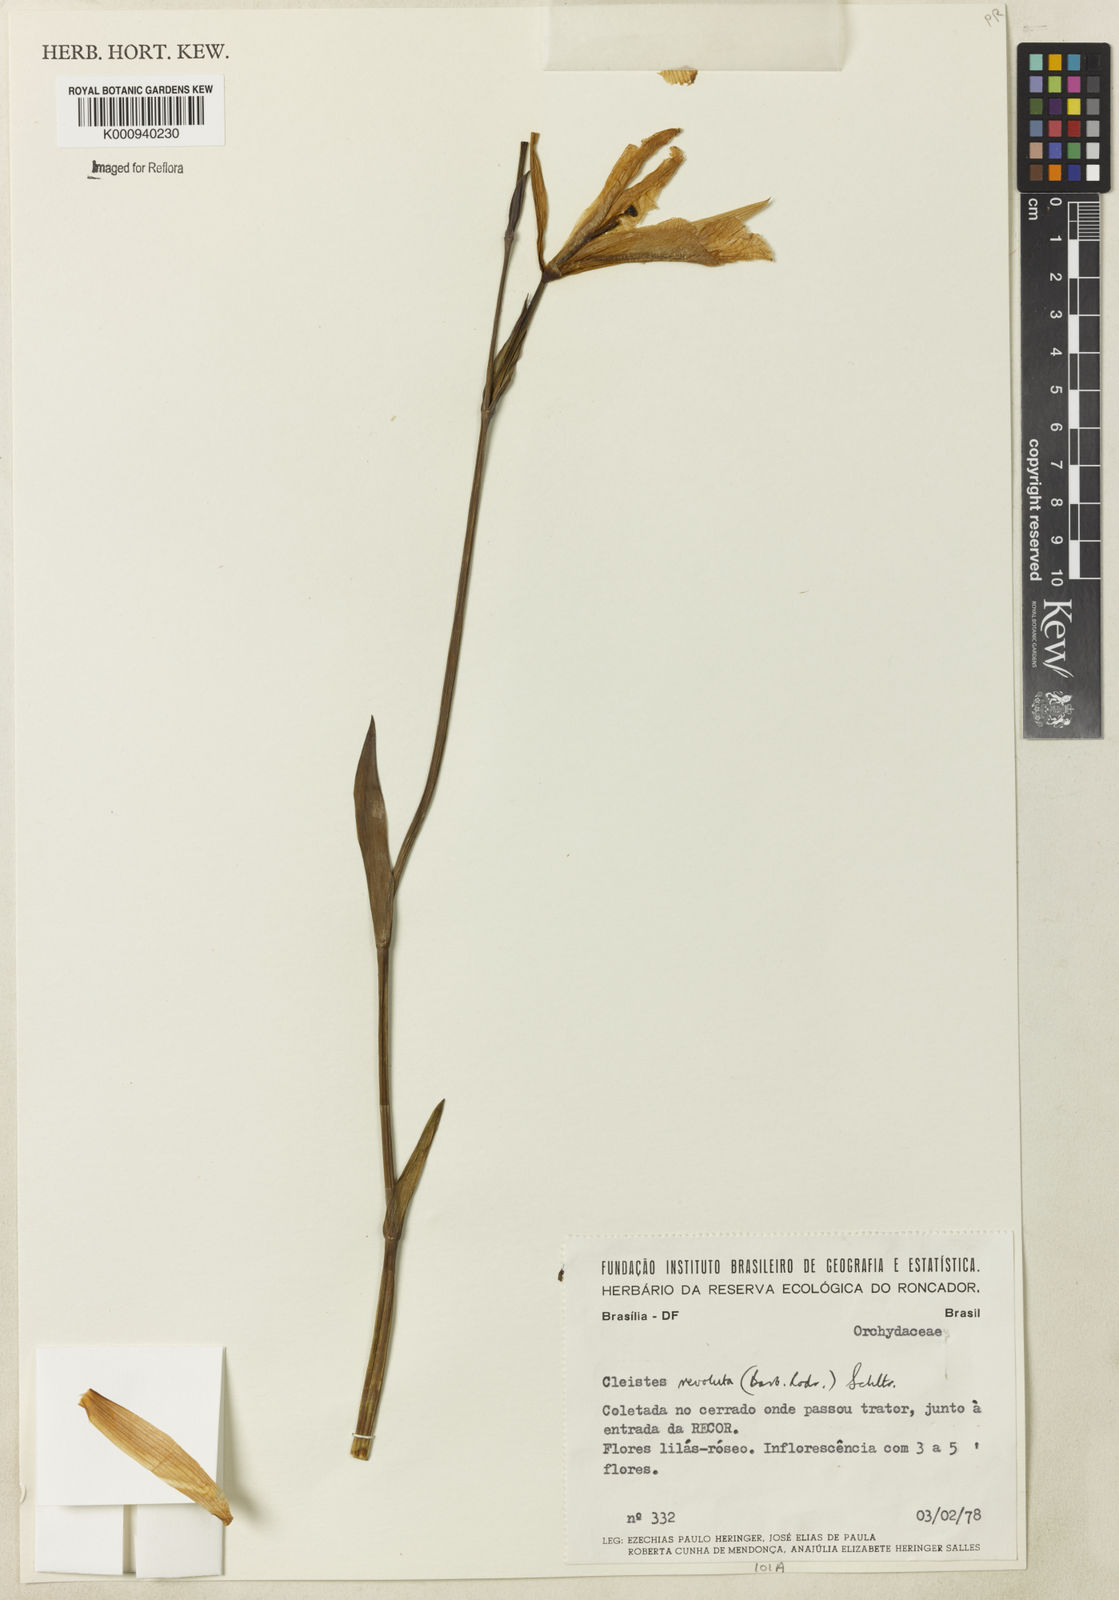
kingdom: Plantae
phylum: Tracheophyta
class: Liliopsida
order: Asparagales
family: Orchidaceae
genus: Cleistes
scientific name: Cleistes libonii
